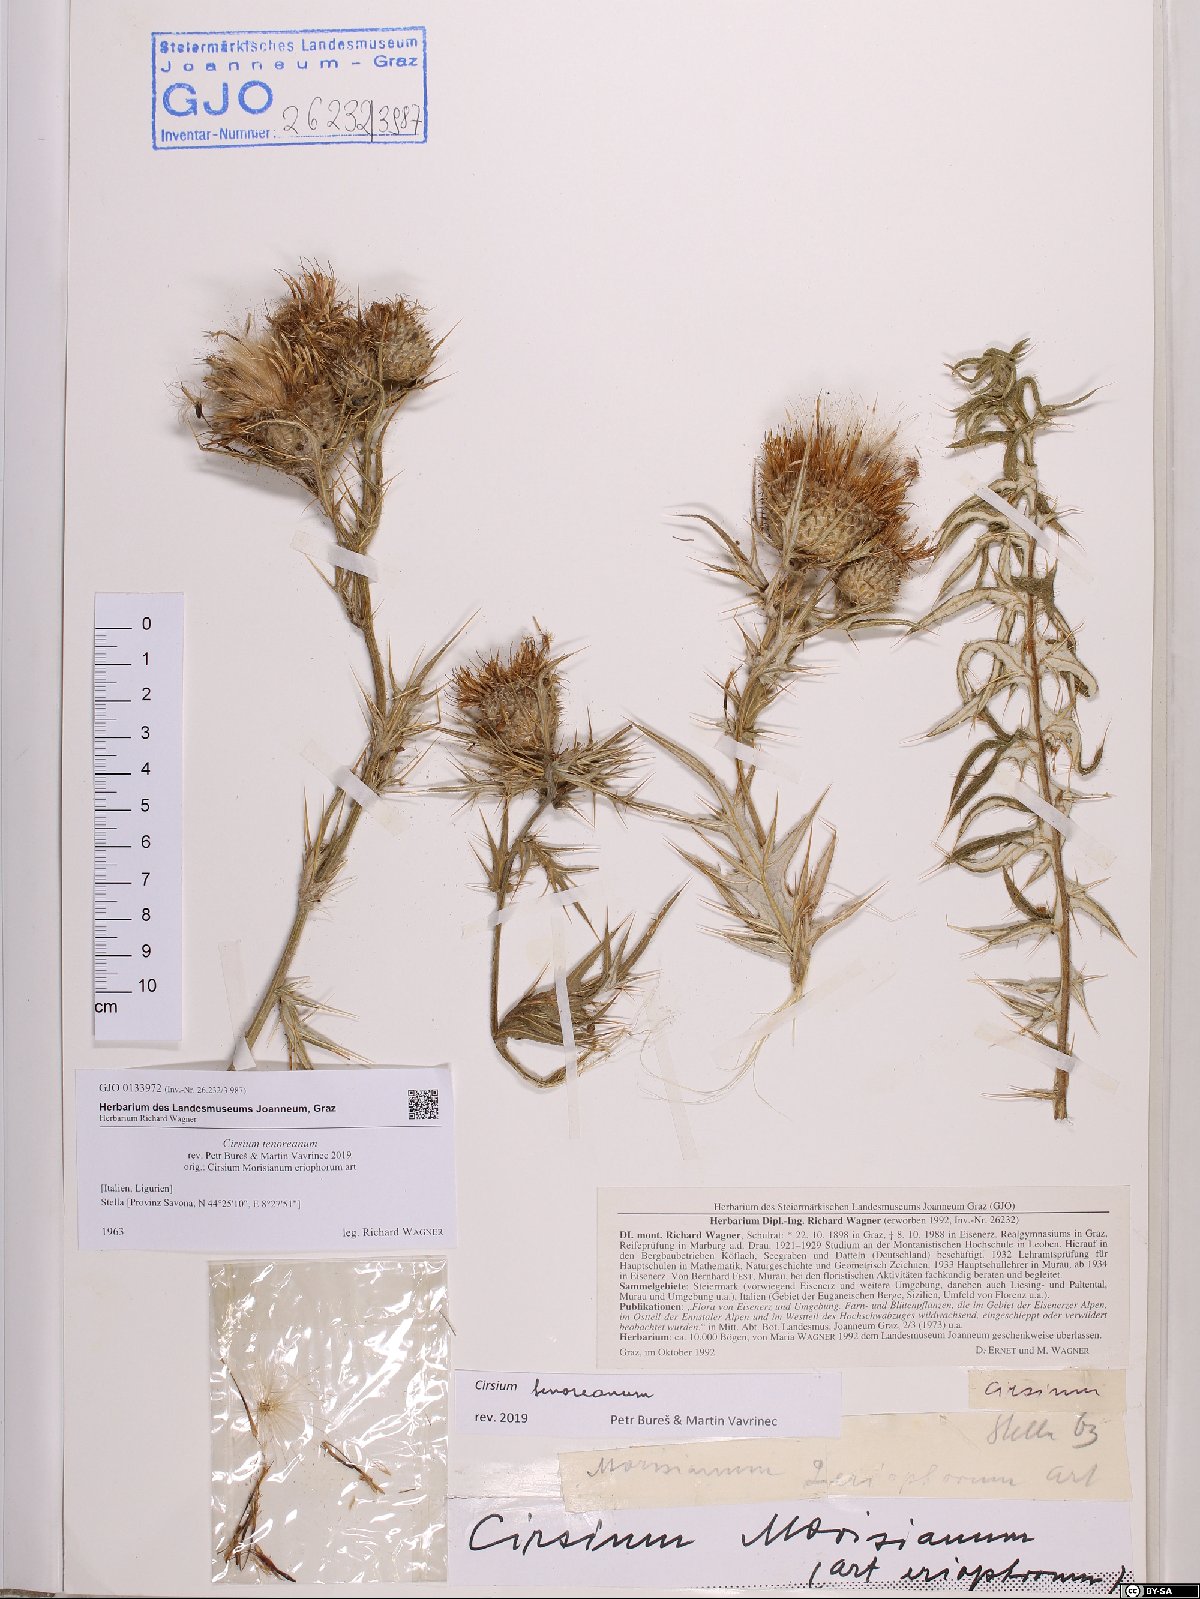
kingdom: Plantae
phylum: Tracheophyta
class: Magnoliopsida
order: Asterales
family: Asteraceae
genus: Lophiolepis
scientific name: Lophiolepis tenoreana
